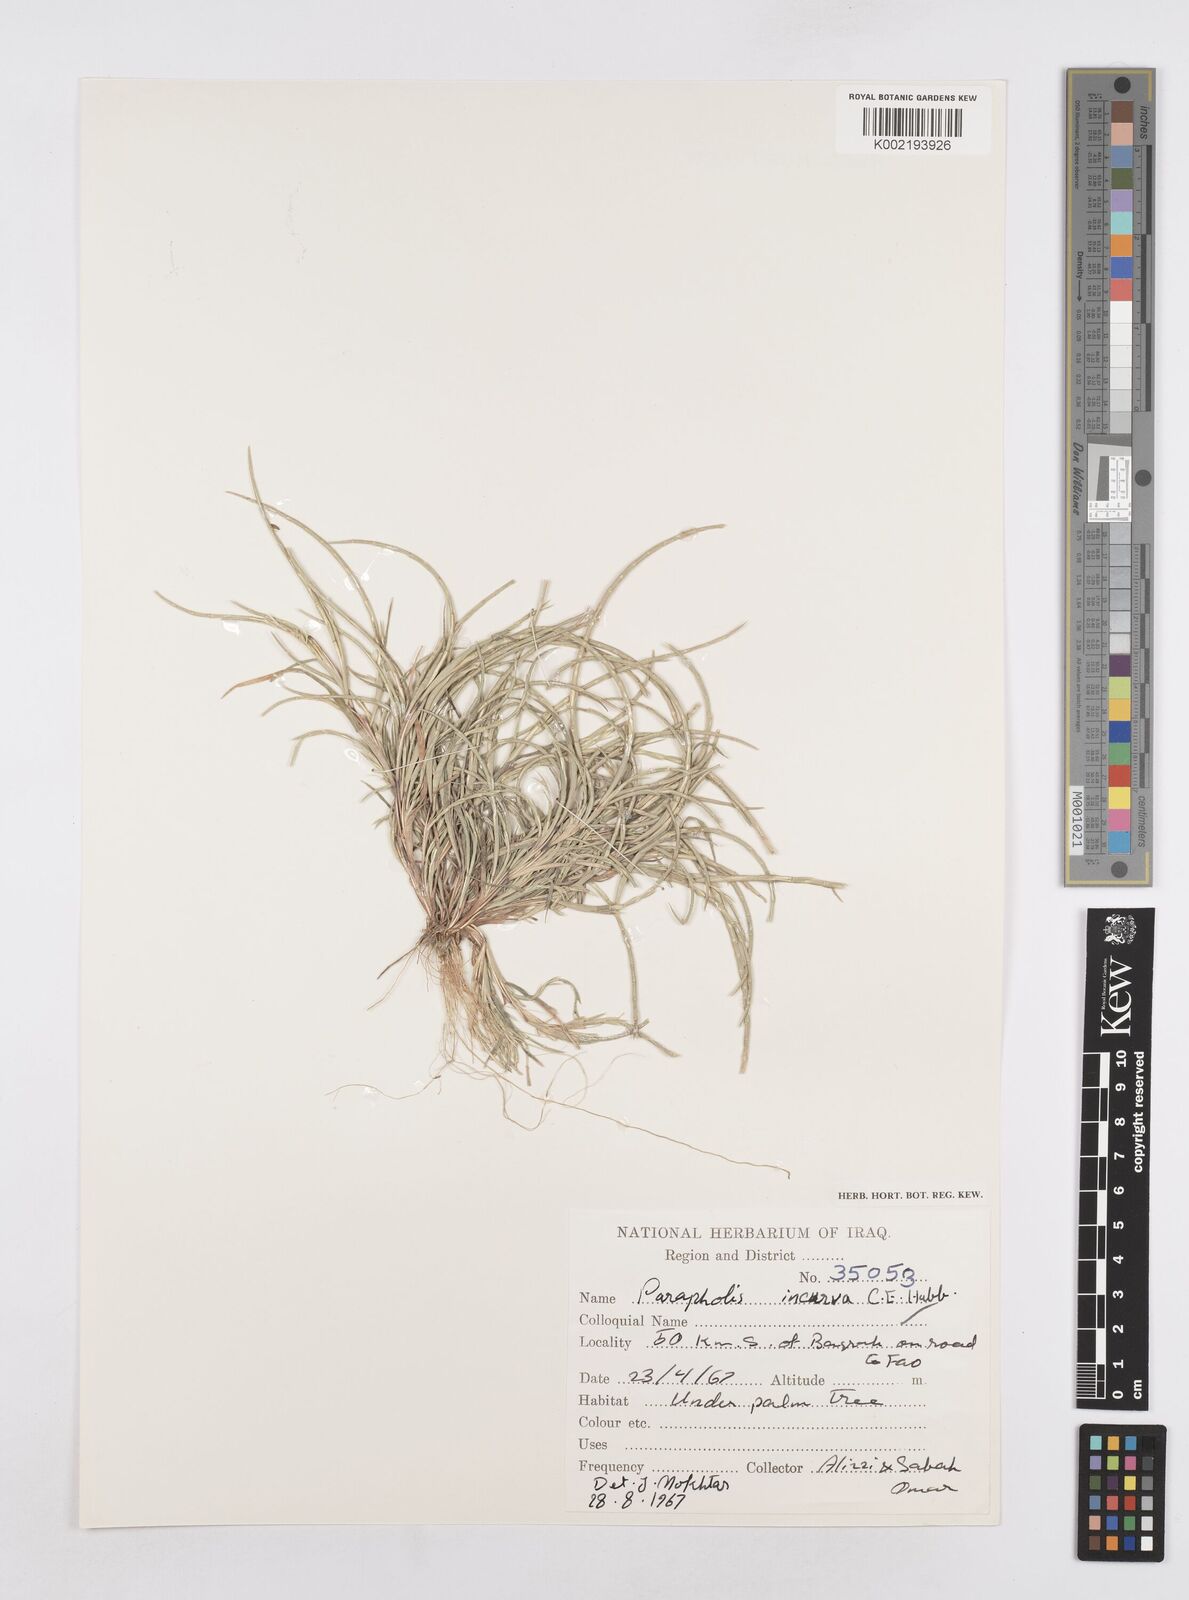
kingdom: Plantae
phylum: Tracheophyta
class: Liliopsida
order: Poales
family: Poaceae
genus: Parapholis
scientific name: Parapholis incurva
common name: Curved sicklegrass
